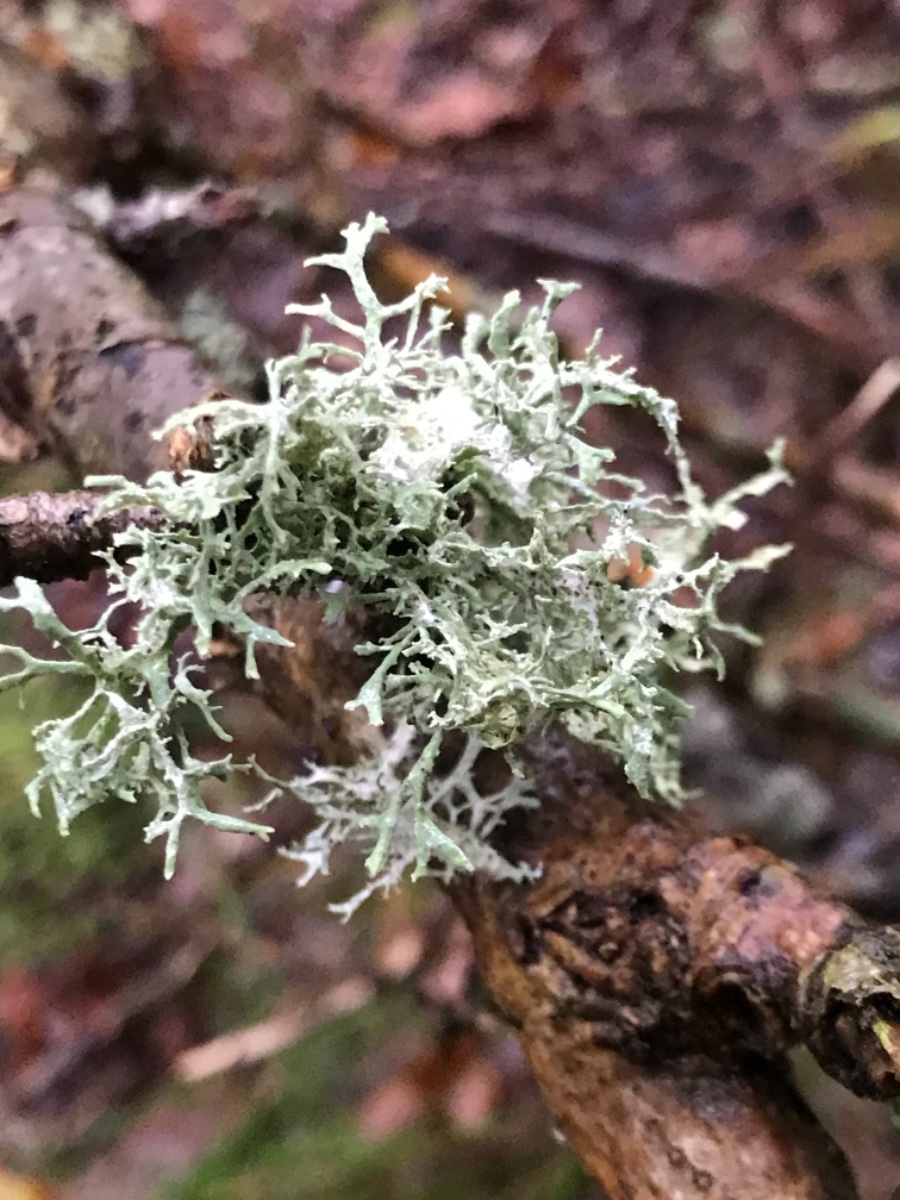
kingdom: Fungi
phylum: Ascomycota
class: Lecanoromycetes
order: Lecanorales
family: Parmeliaceae
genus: Evernia
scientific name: Evernia prunastri
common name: almindelig slåenlav
